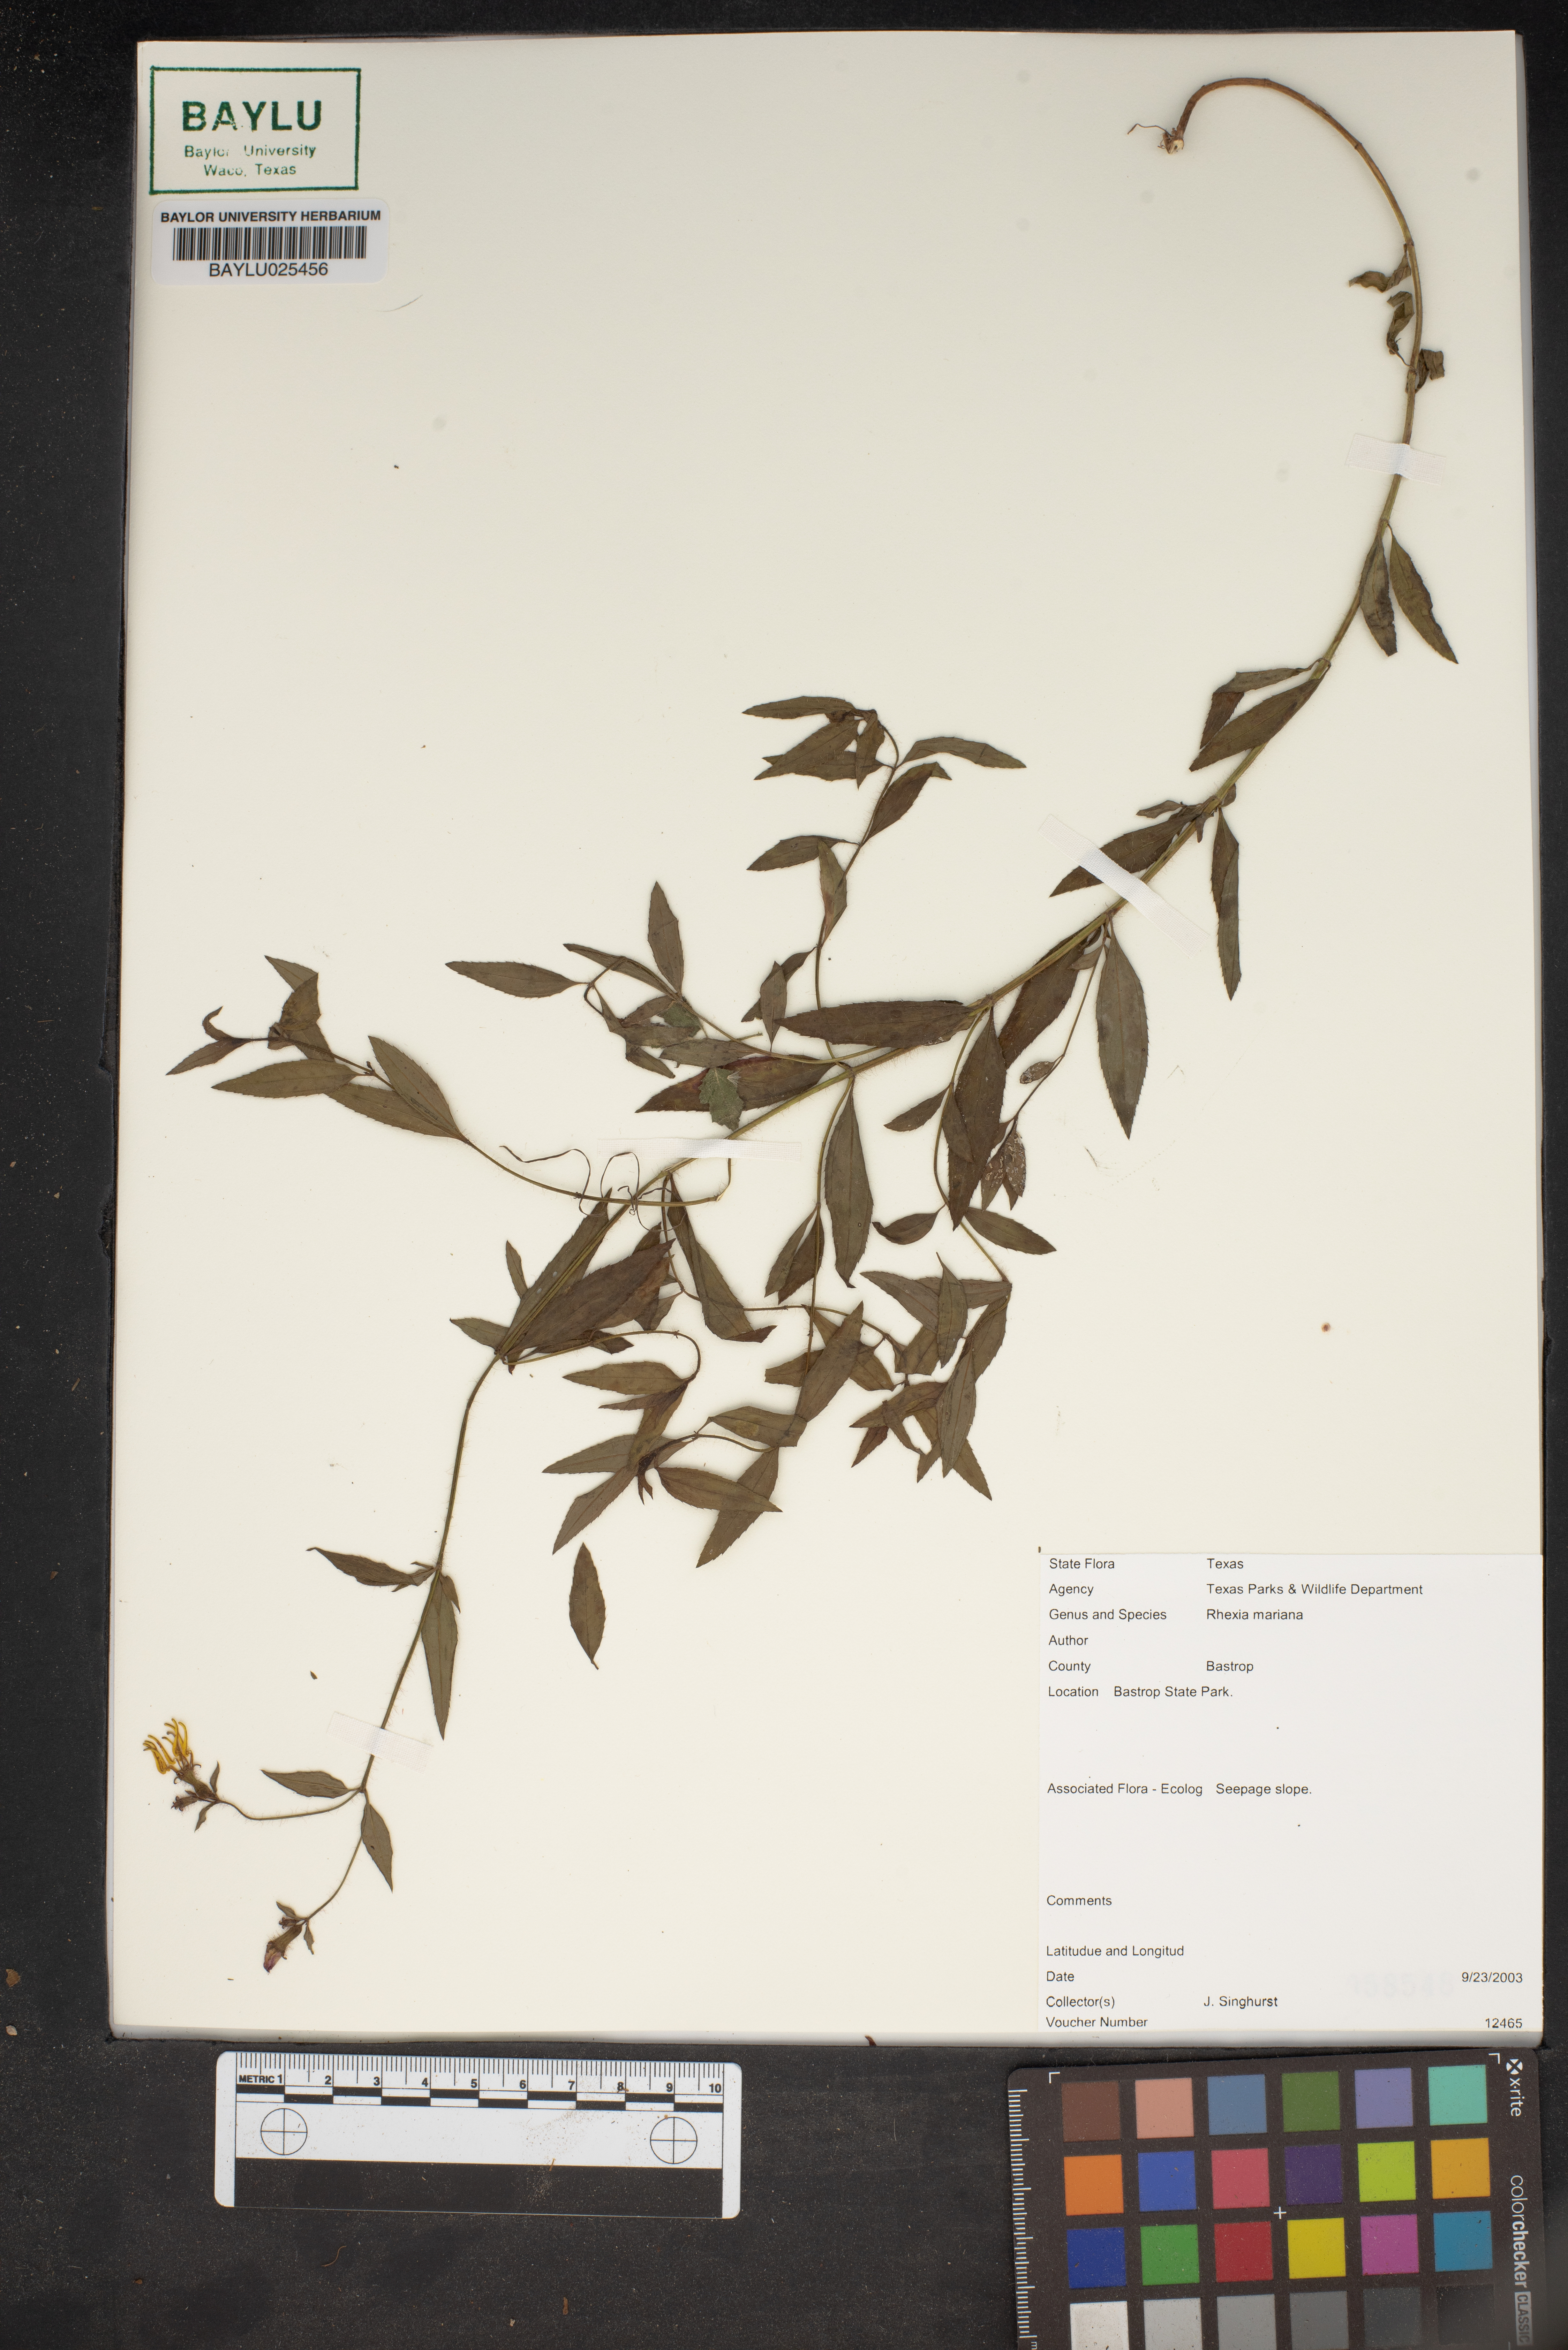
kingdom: Plantae
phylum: Tracheophyta
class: Magnoliopsida
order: Myrtales
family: Melastomataceae
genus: Rhexia
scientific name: Rhexia mariana
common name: Dull meadow-pitcher
